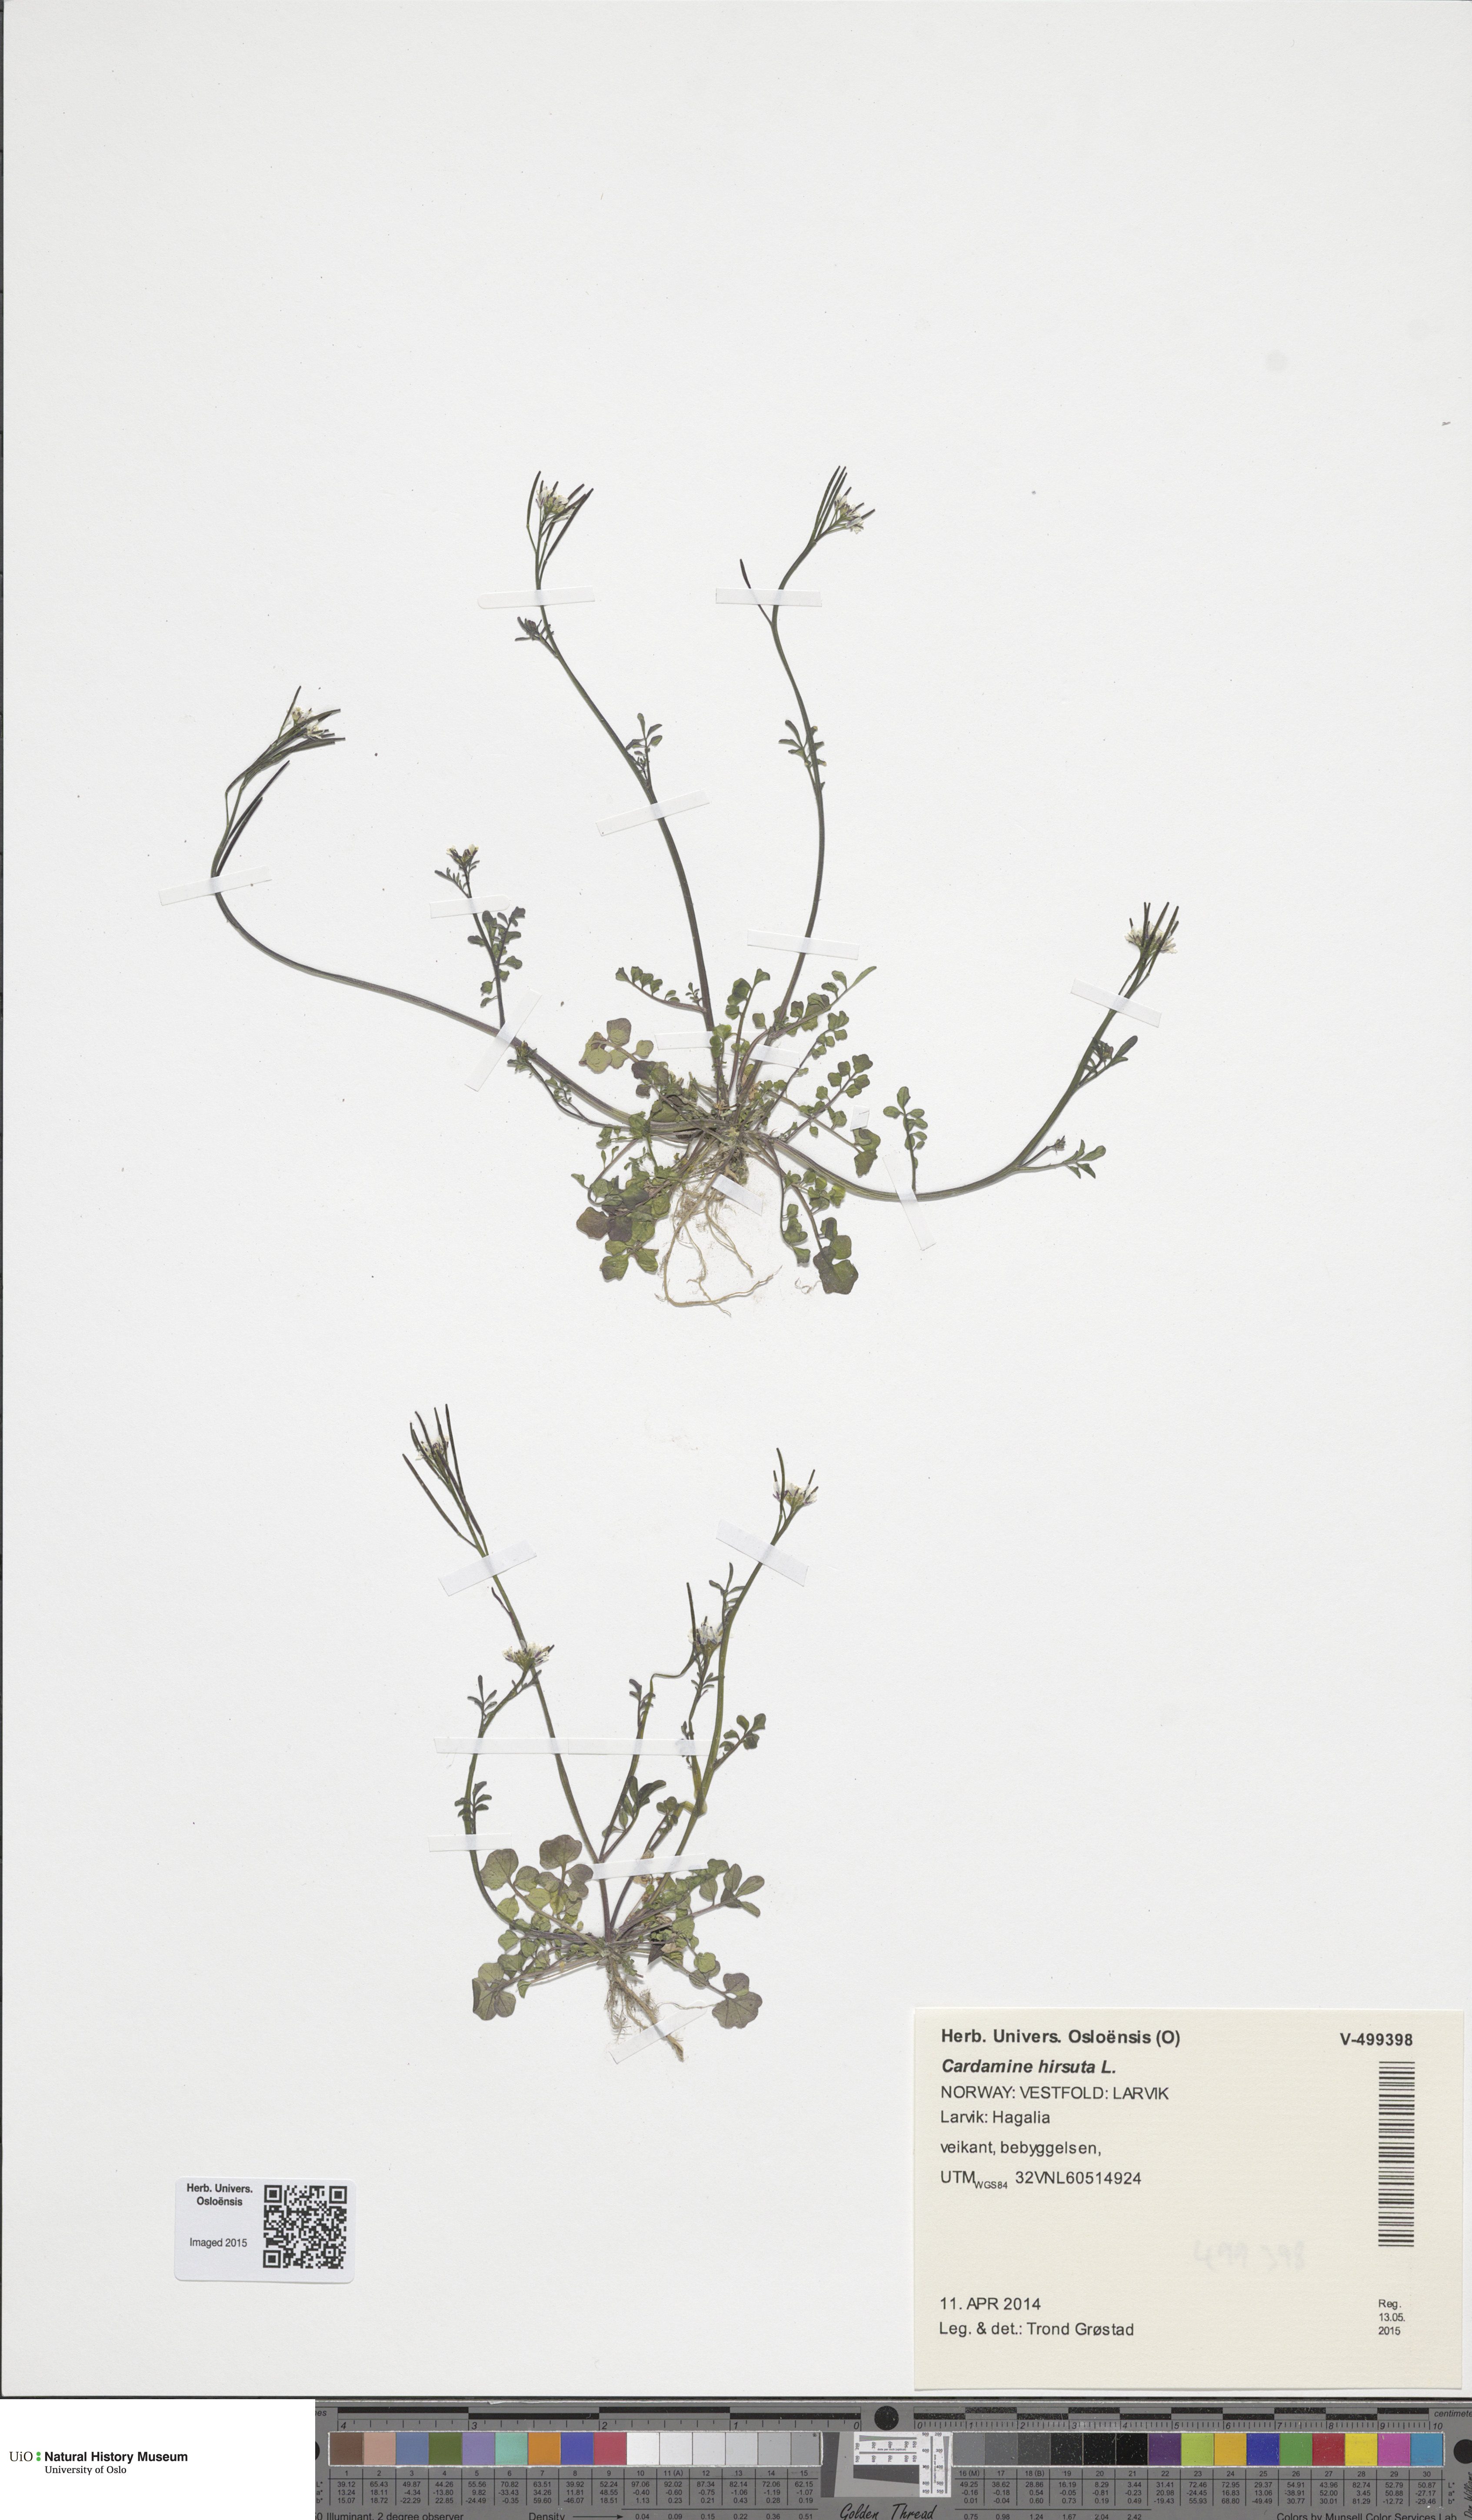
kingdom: Plantae
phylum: Tracheophyta
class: Magnoliopsida
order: Brassicales
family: Brassicaceae
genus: Cardamine
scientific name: Cardamine hirsuta
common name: Hairy bittercress
